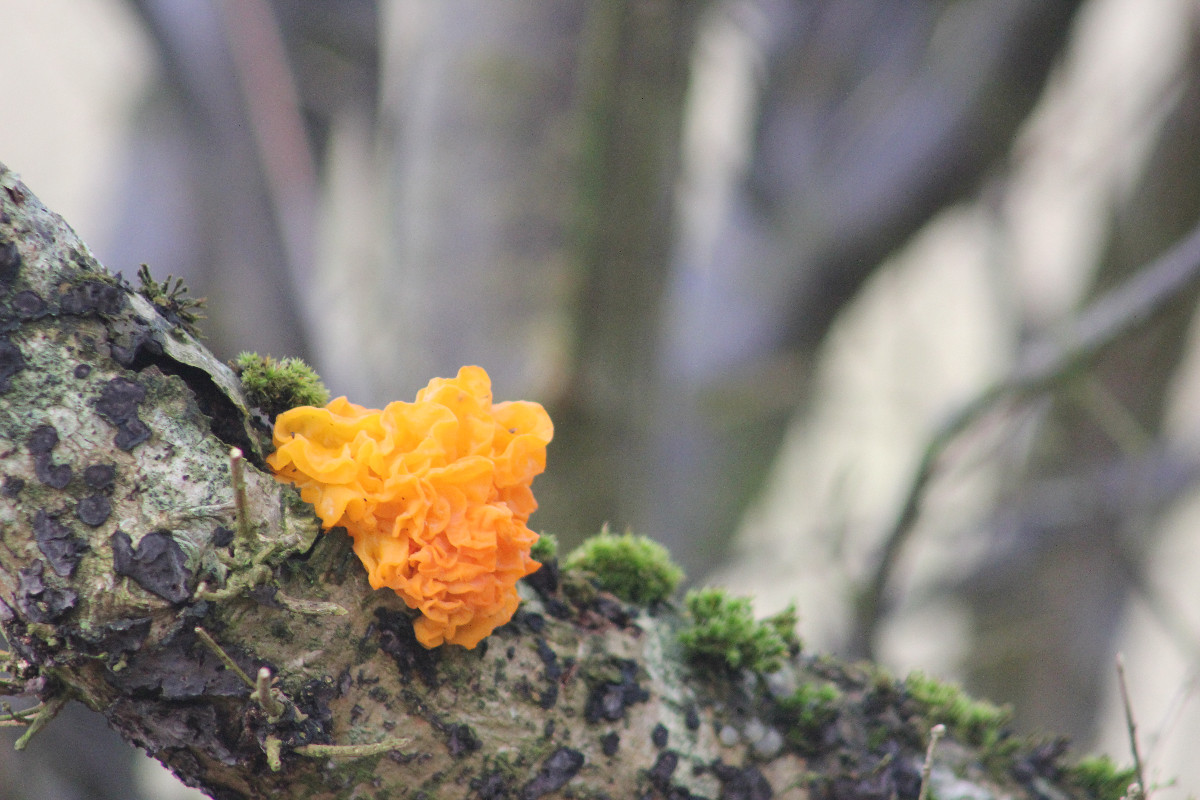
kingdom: Fungi
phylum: Basidiomycota
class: Tremellomycetes
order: Tremellales
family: Tremellaceae
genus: Tremella
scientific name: Tremella mesenterica
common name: gul bævresvamp
